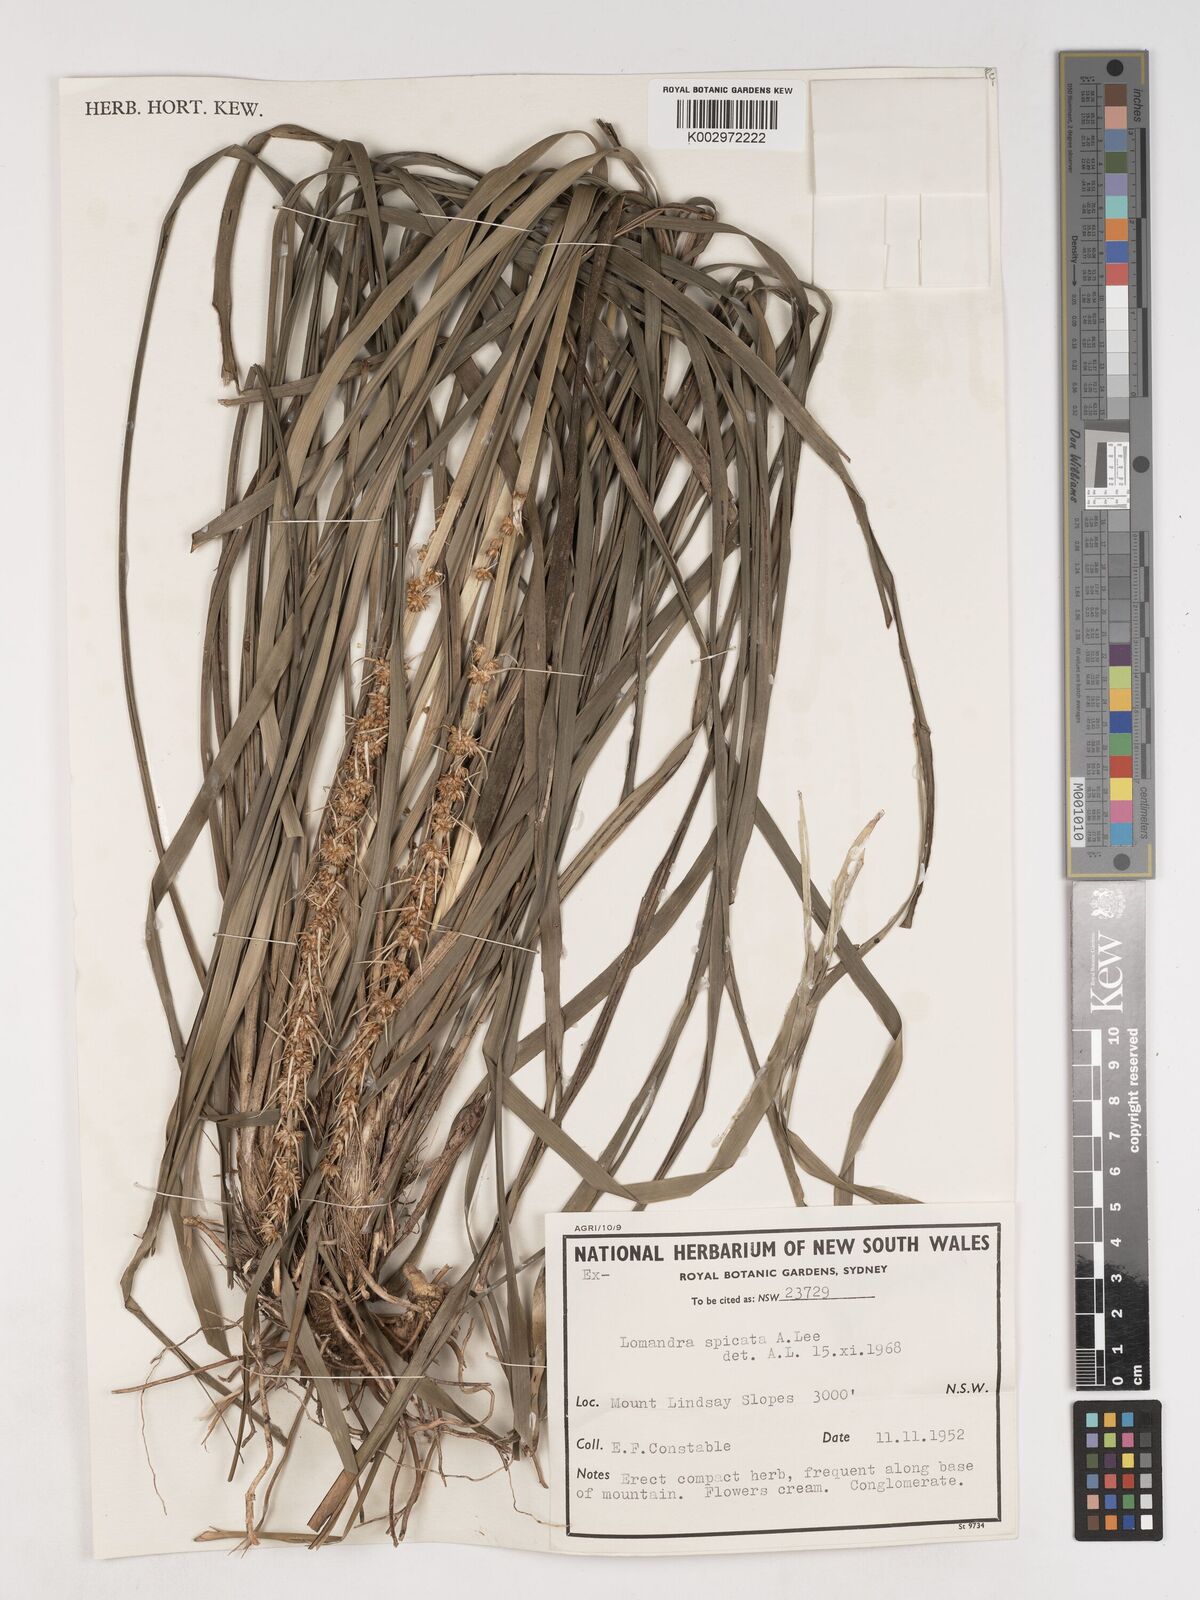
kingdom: Plantae
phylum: Tracheophyta
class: Liliopsida
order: Asparagales
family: Asparagaceae
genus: Lomandra
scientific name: Lomandra spicata
